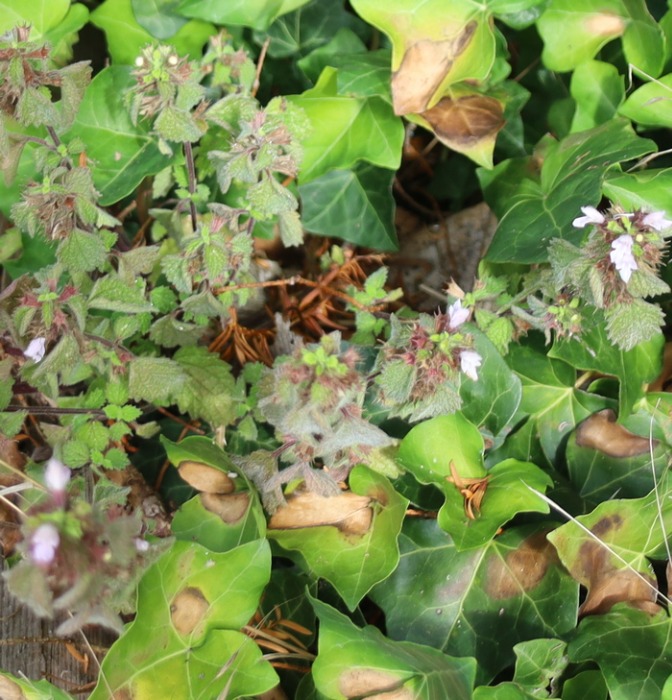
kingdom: Plantae
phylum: Tracheophyta
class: Magnoliopsida
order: Lamiales
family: Lamiaceae
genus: Ballota
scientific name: Ballota nigra
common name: Tandbæger
